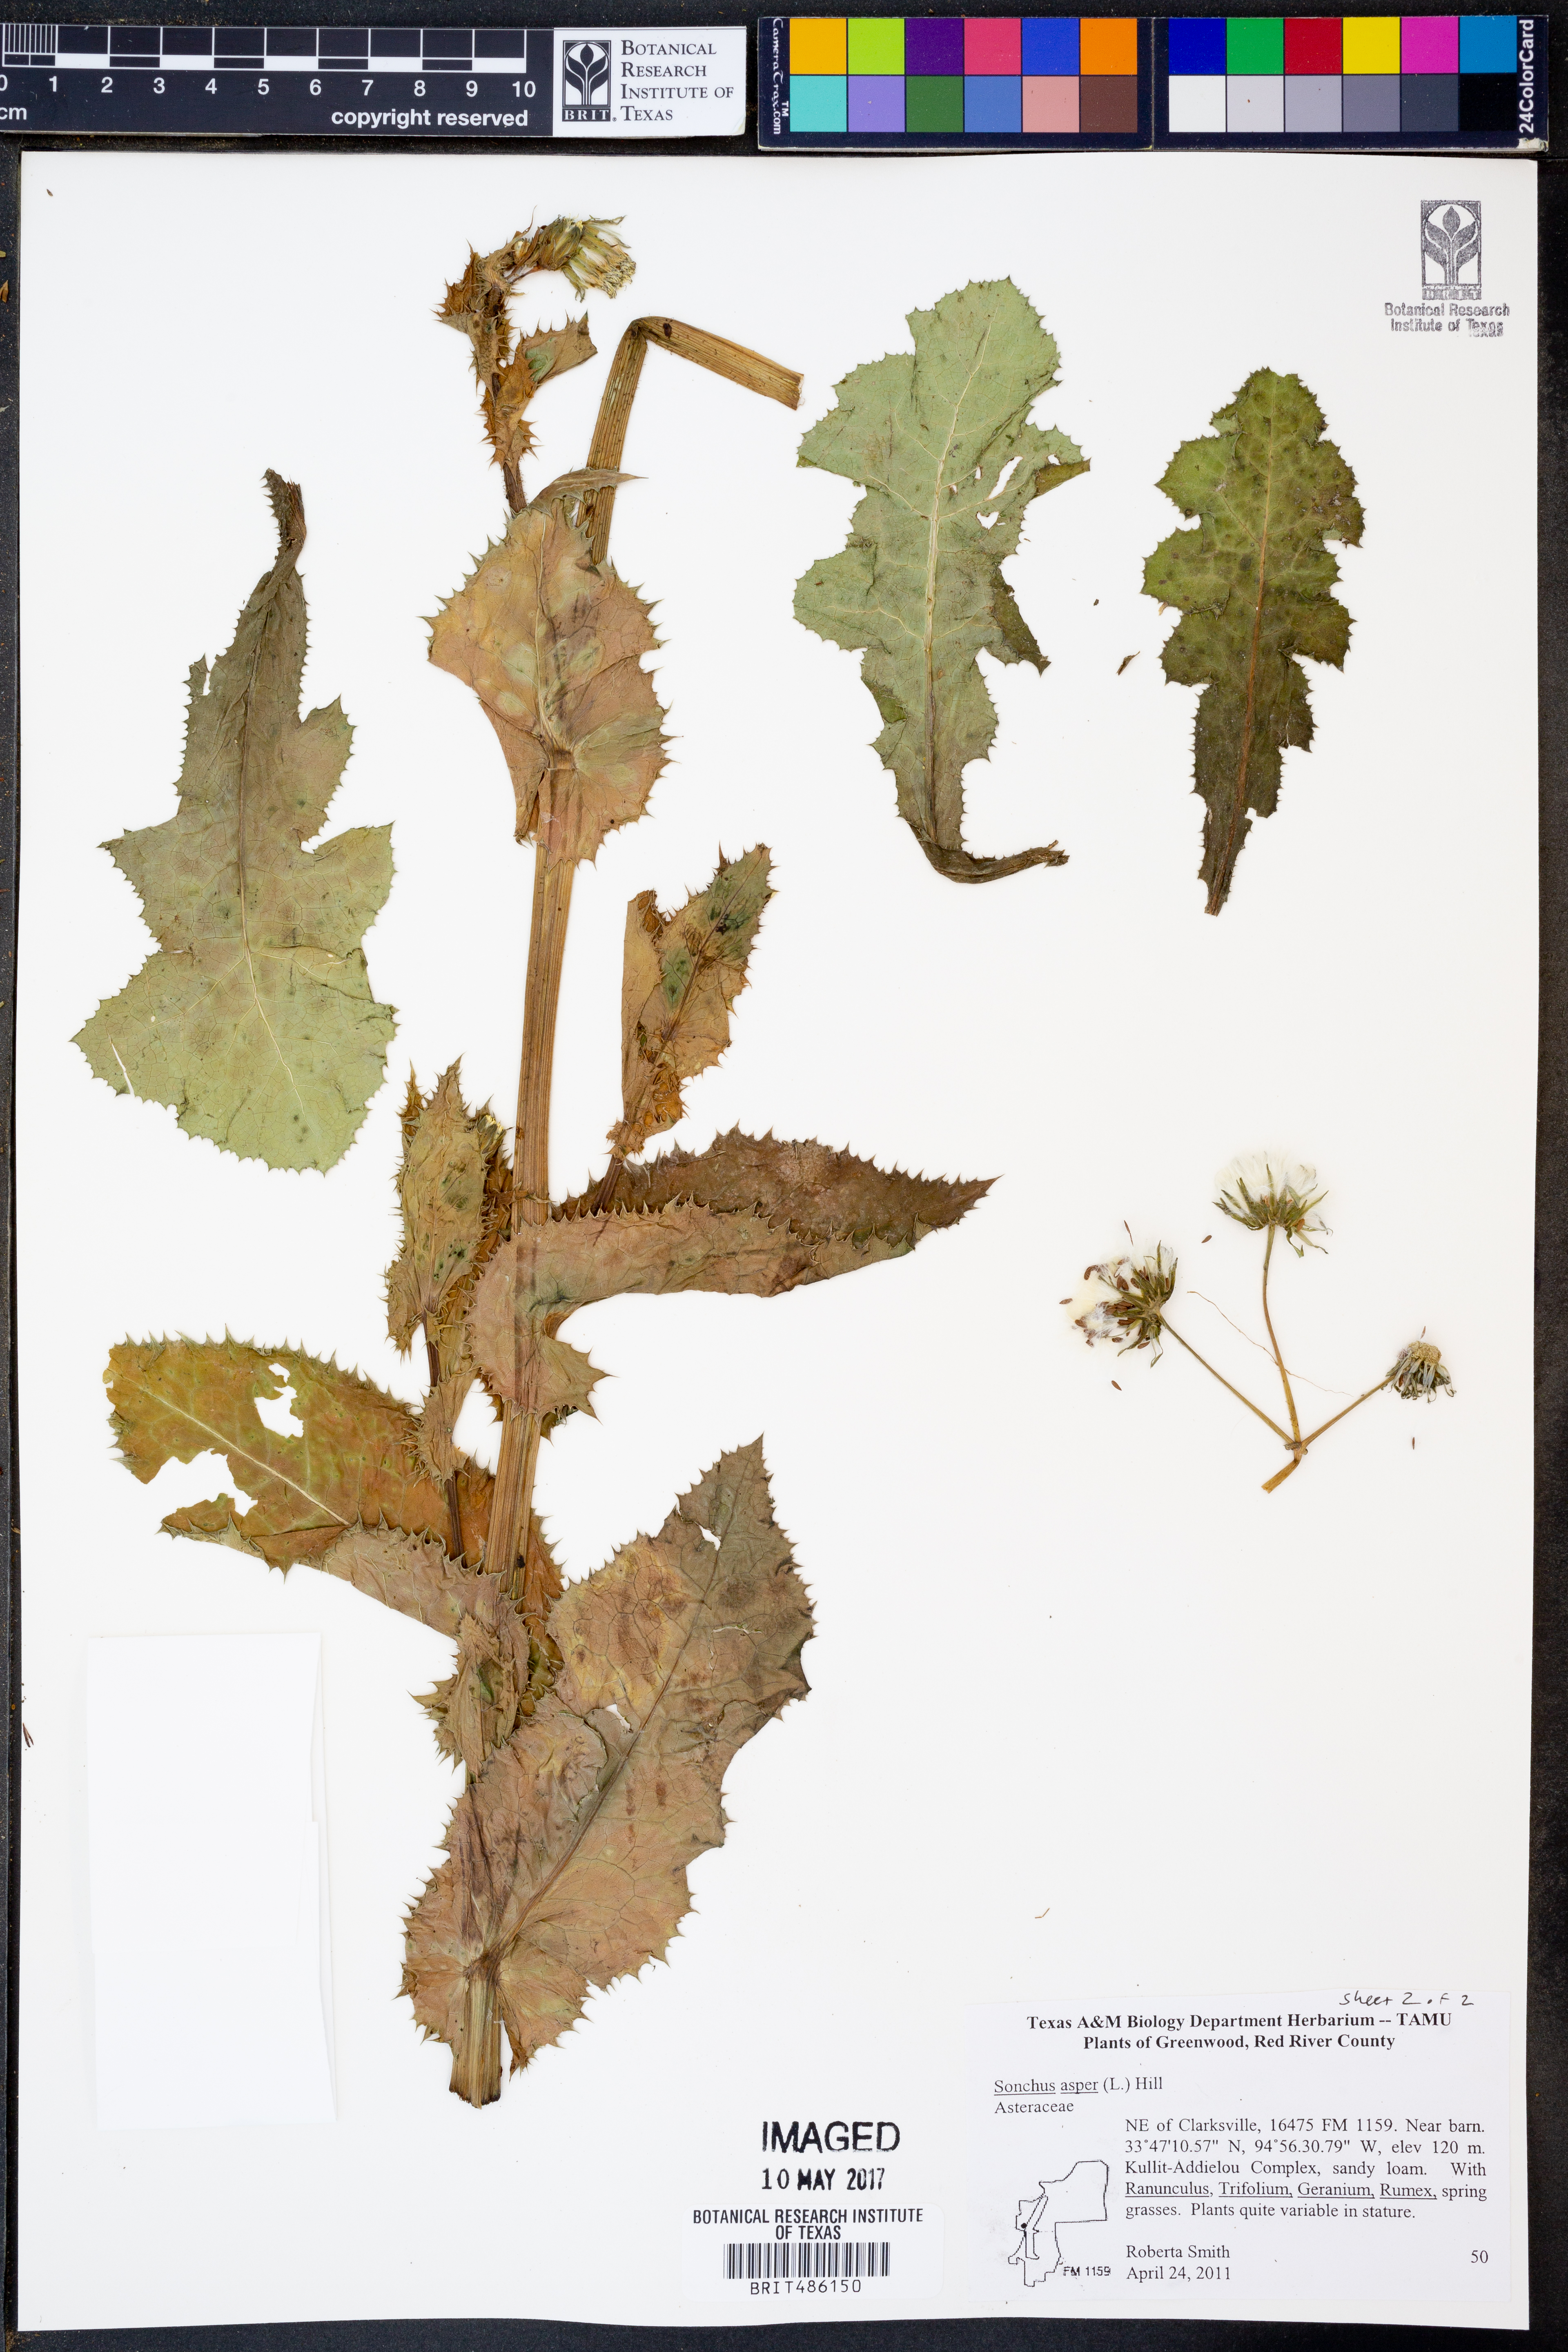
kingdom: Plantae
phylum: Tracheophyta
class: Magnoliopsida
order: Asterales
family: Asteraceae
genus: Sonchus
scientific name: Sonchus asper
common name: Prickly sow-thistle
